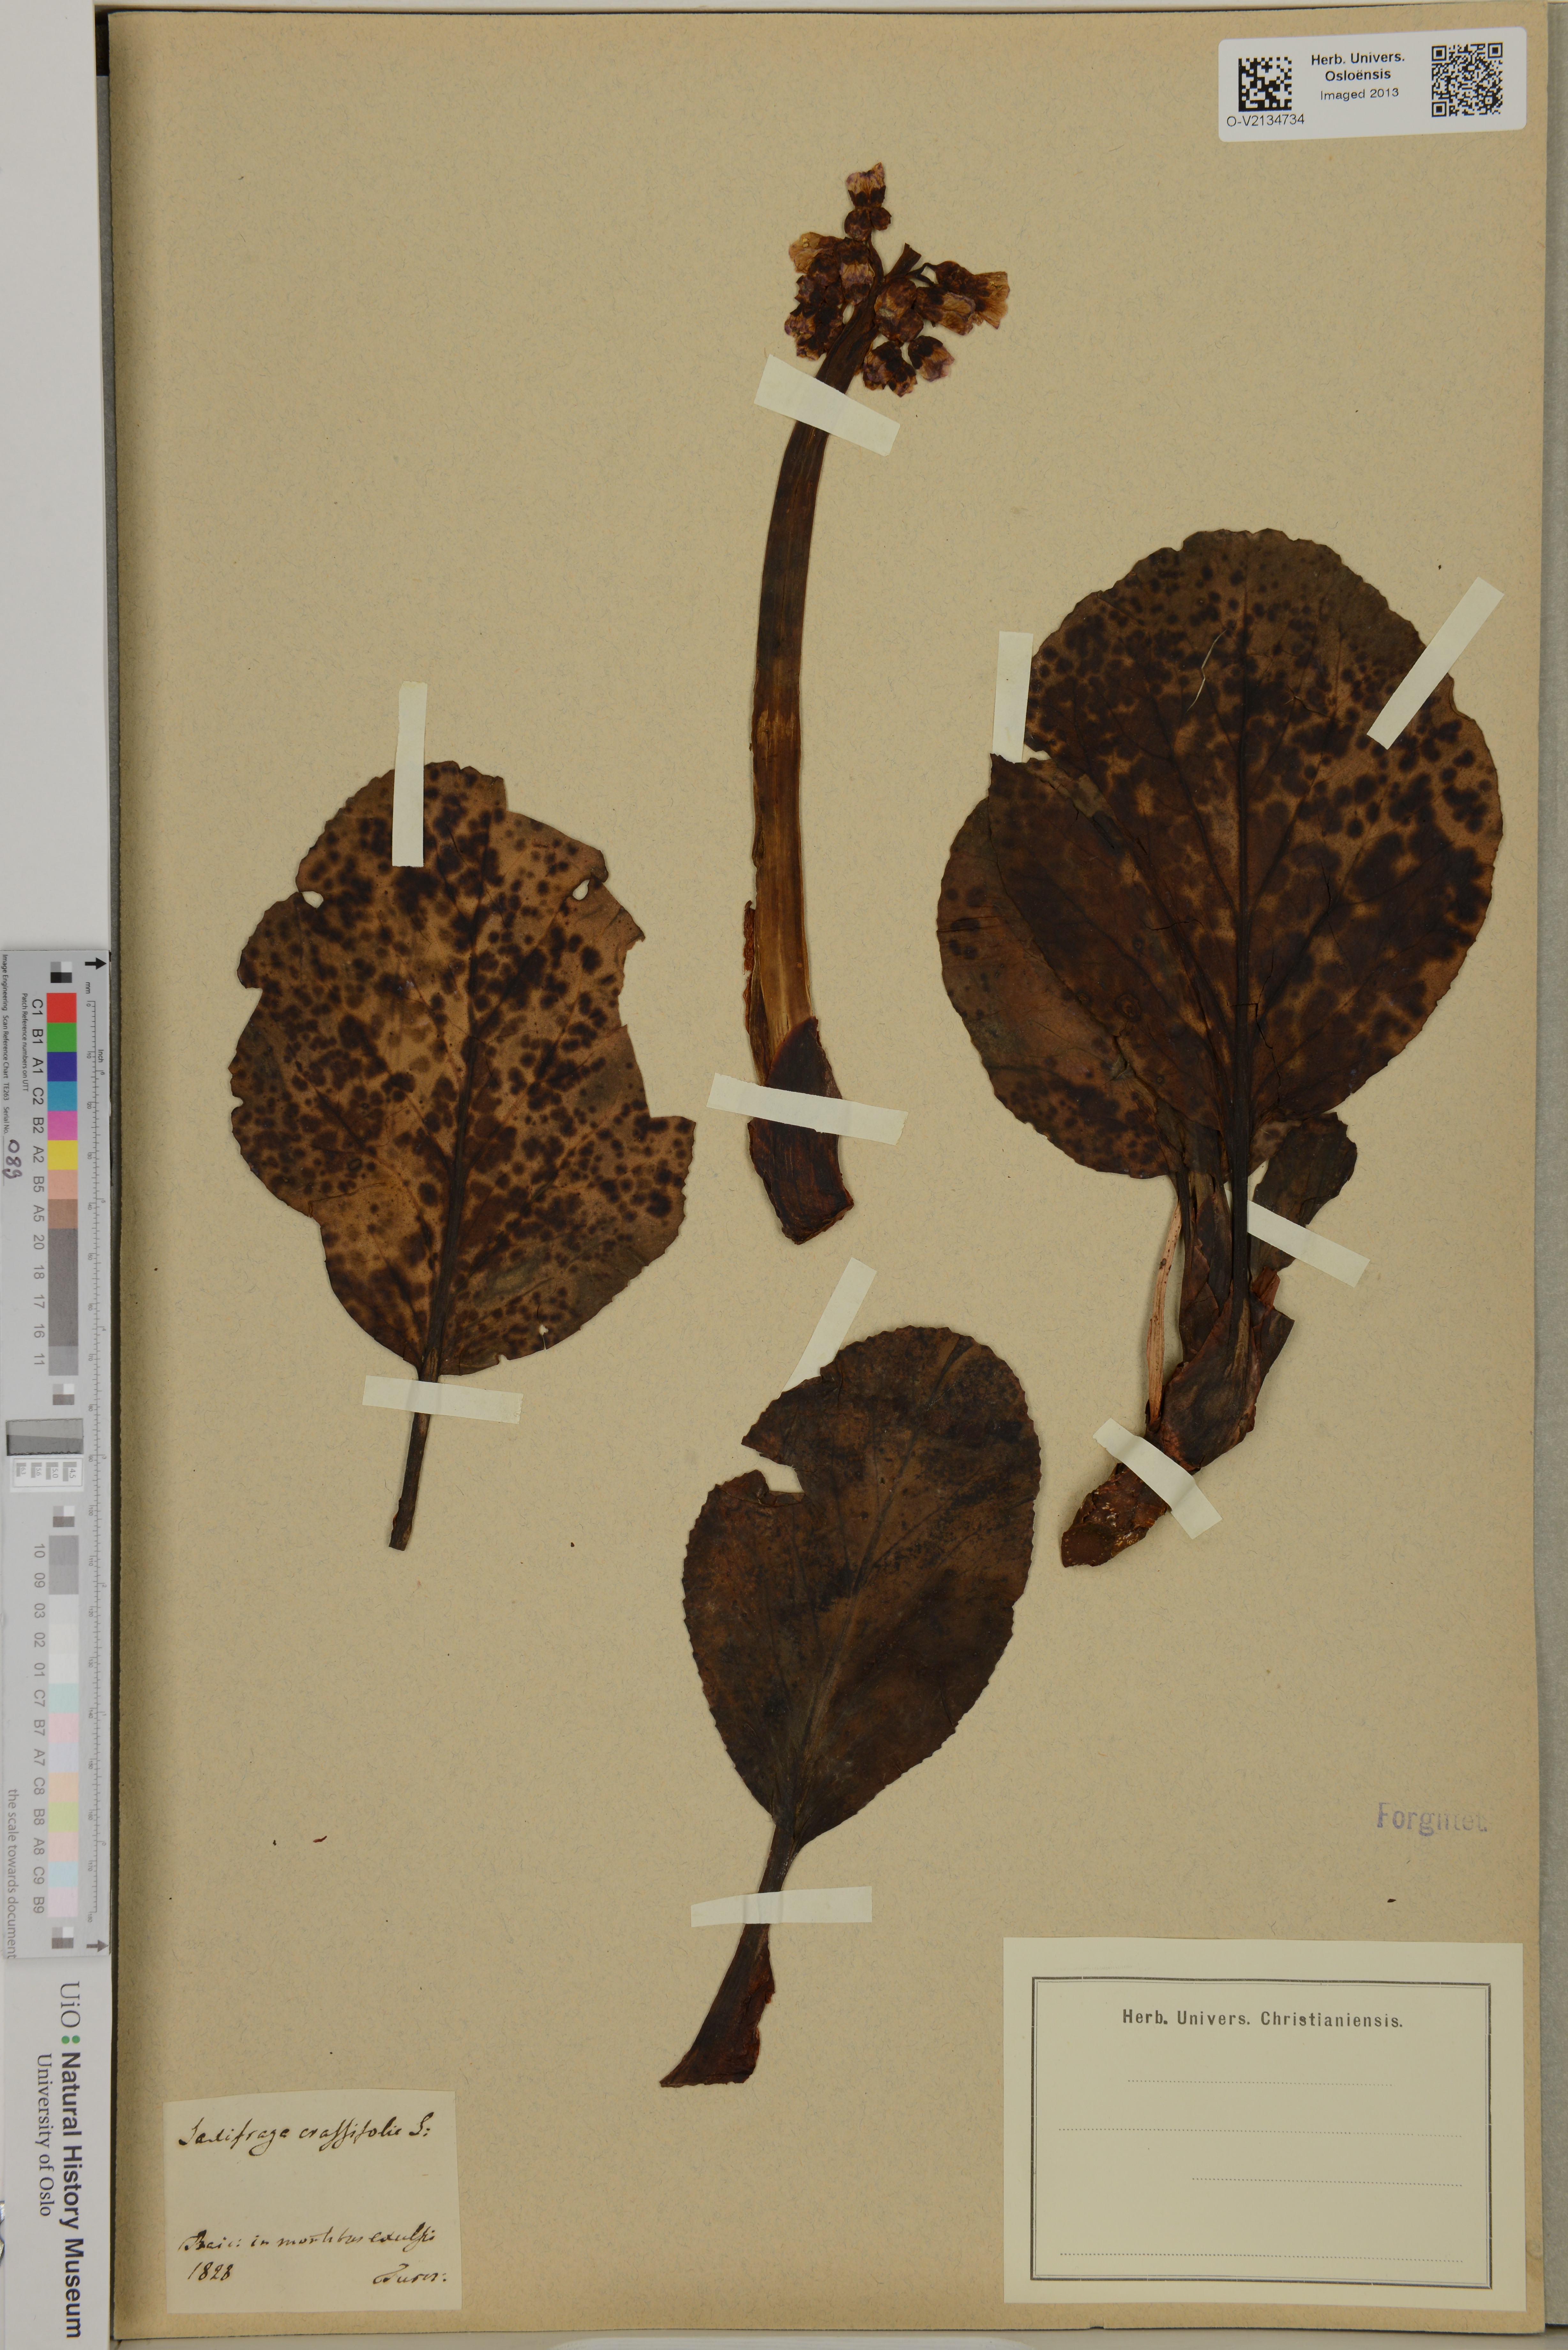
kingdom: Plantae
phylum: Tracheophyta
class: Magnoliopsida
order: Saxifragales
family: Saxifragaceae
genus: Bergenia
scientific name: Bergenia crassifolia
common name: Elephant-ears
